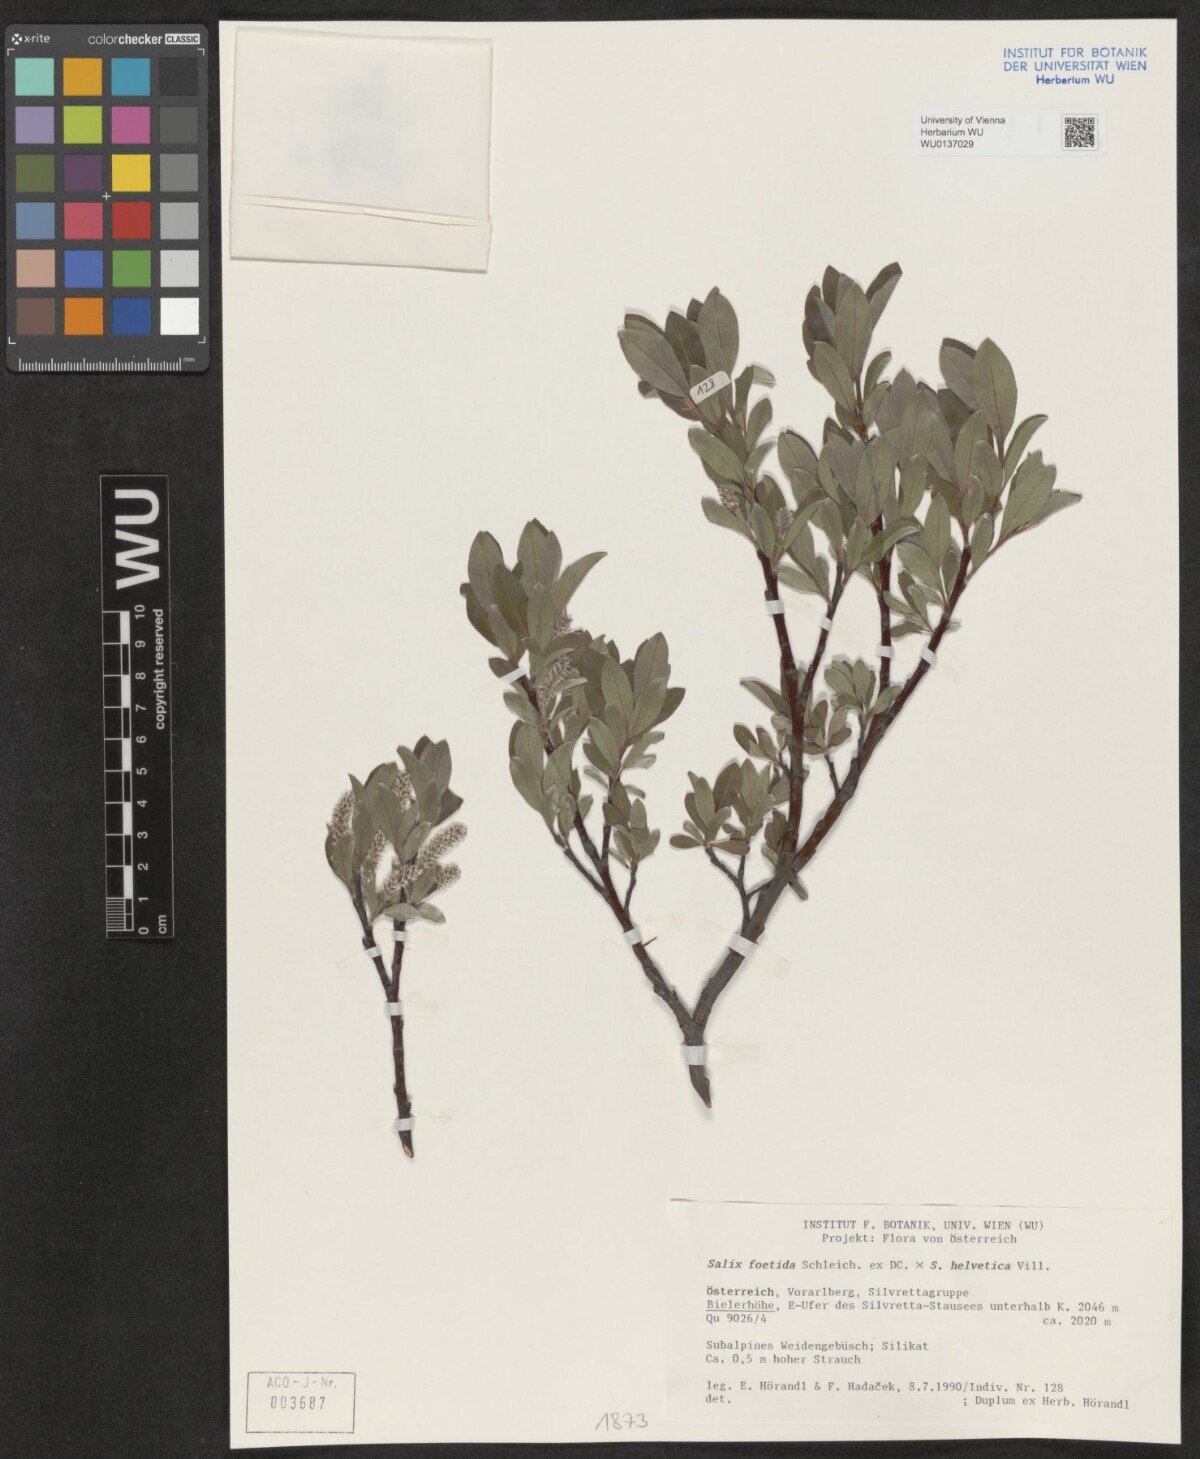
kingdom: Plantae
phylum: Tracheophyta
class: Magnoliopsida
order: Malpighiales
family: Salicaceae
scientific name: Salicaceae
